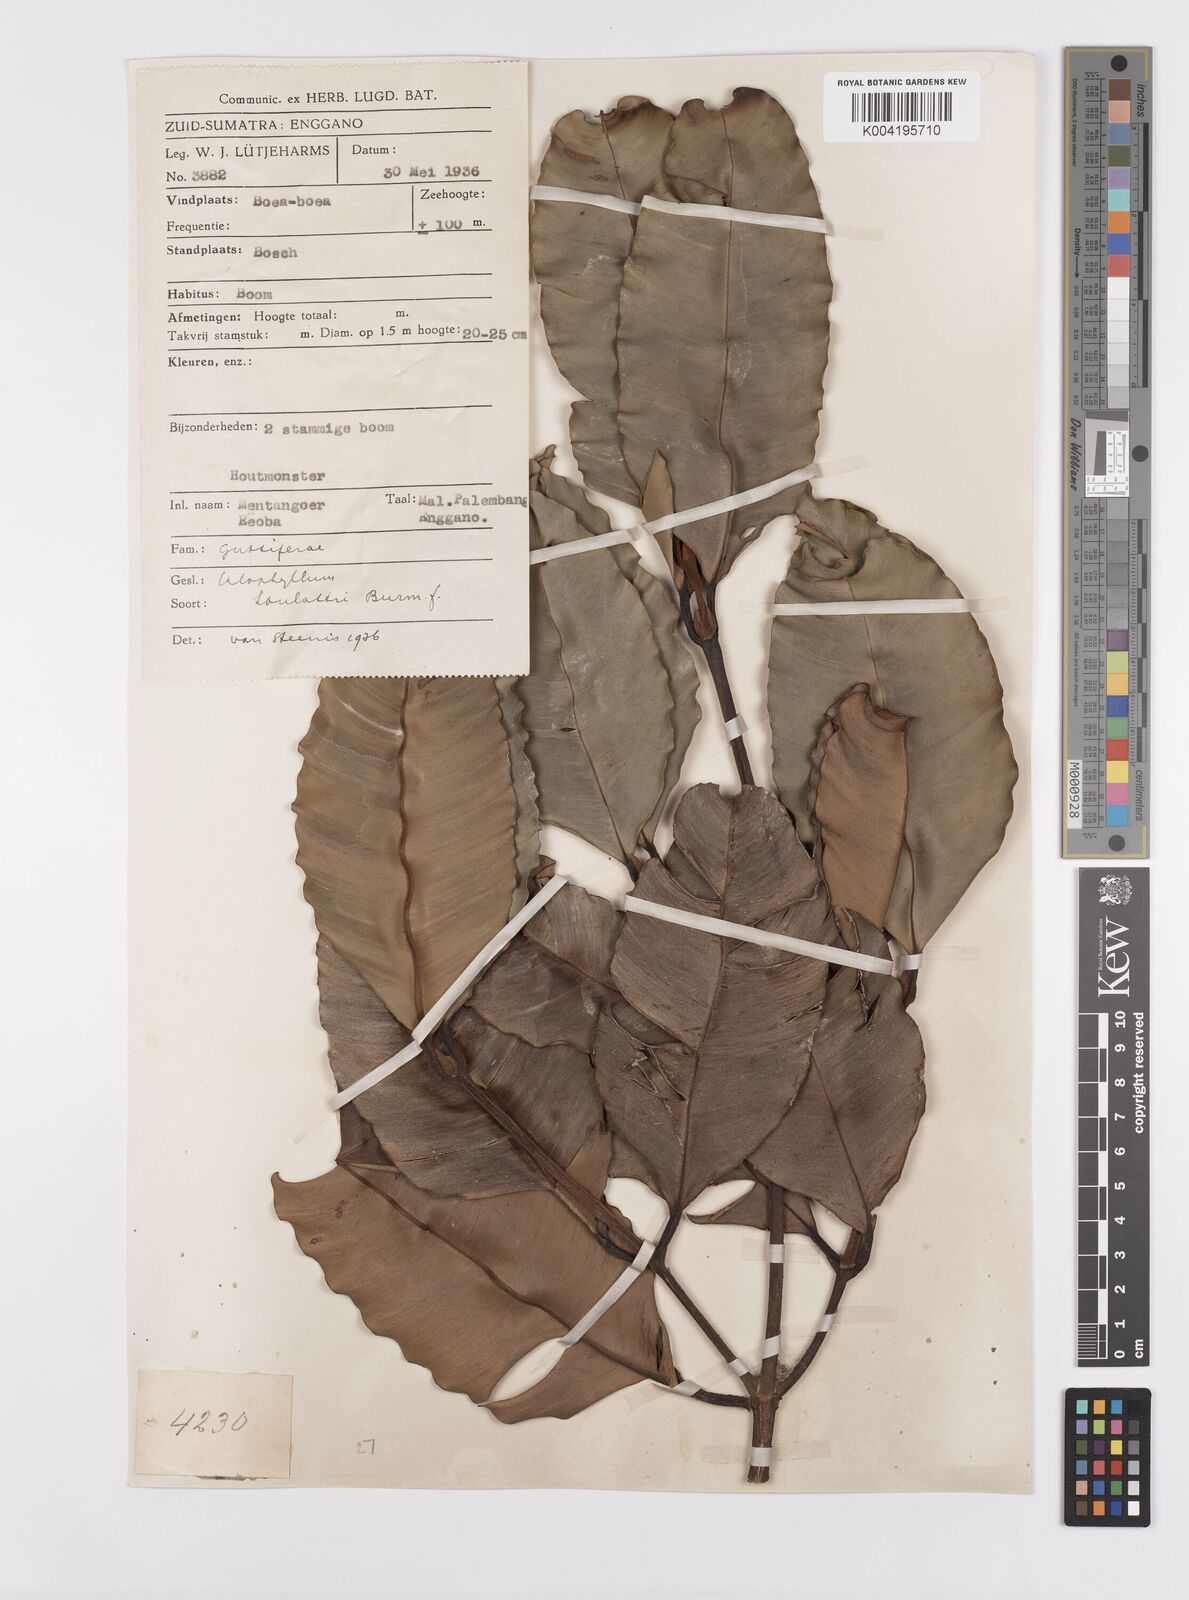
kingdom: Plantae
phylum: Tracheophyta
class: Magnoliopsida
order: Malpighiales
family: Calophyllaceae
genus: Calophyllum
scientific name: Calophyllum soulattri
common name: Bitangoor boonot
